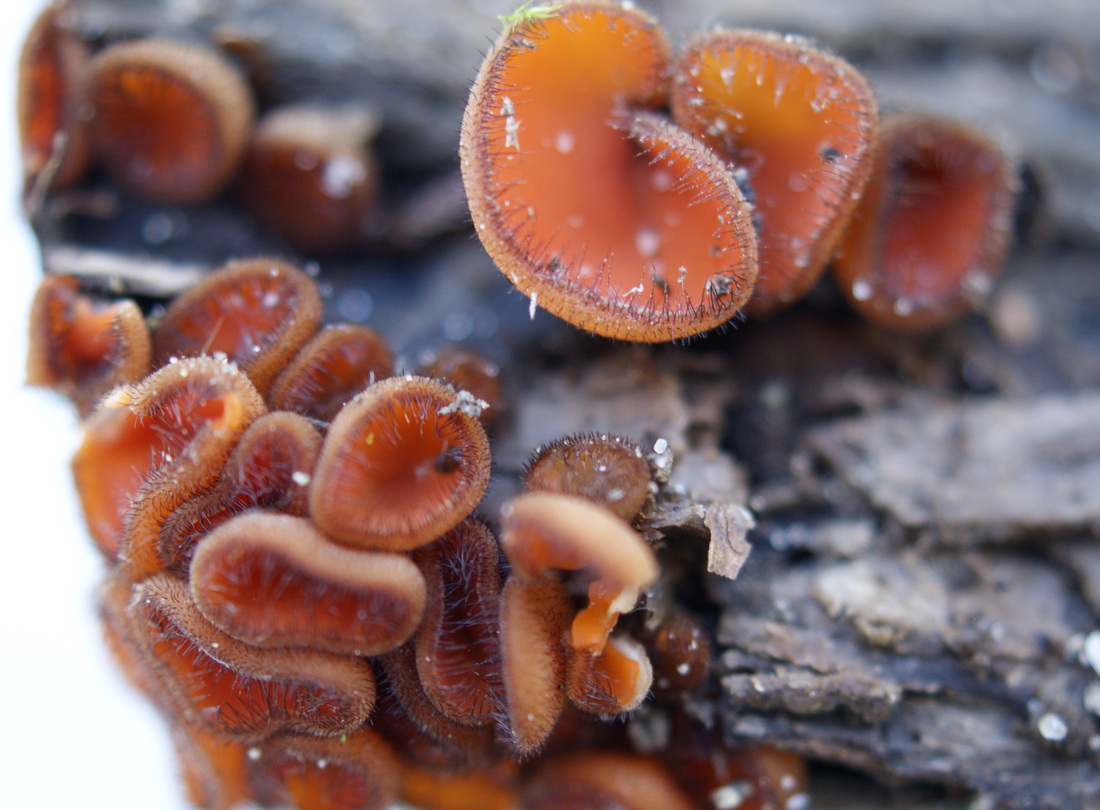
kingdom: Fungi
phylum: Ascomycota
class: Pezizomycetes
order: Pezizales
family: Pyronemataceae
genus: Scutellinia
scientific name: Scutellinia scutellata
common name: frynset skjoldbæger
